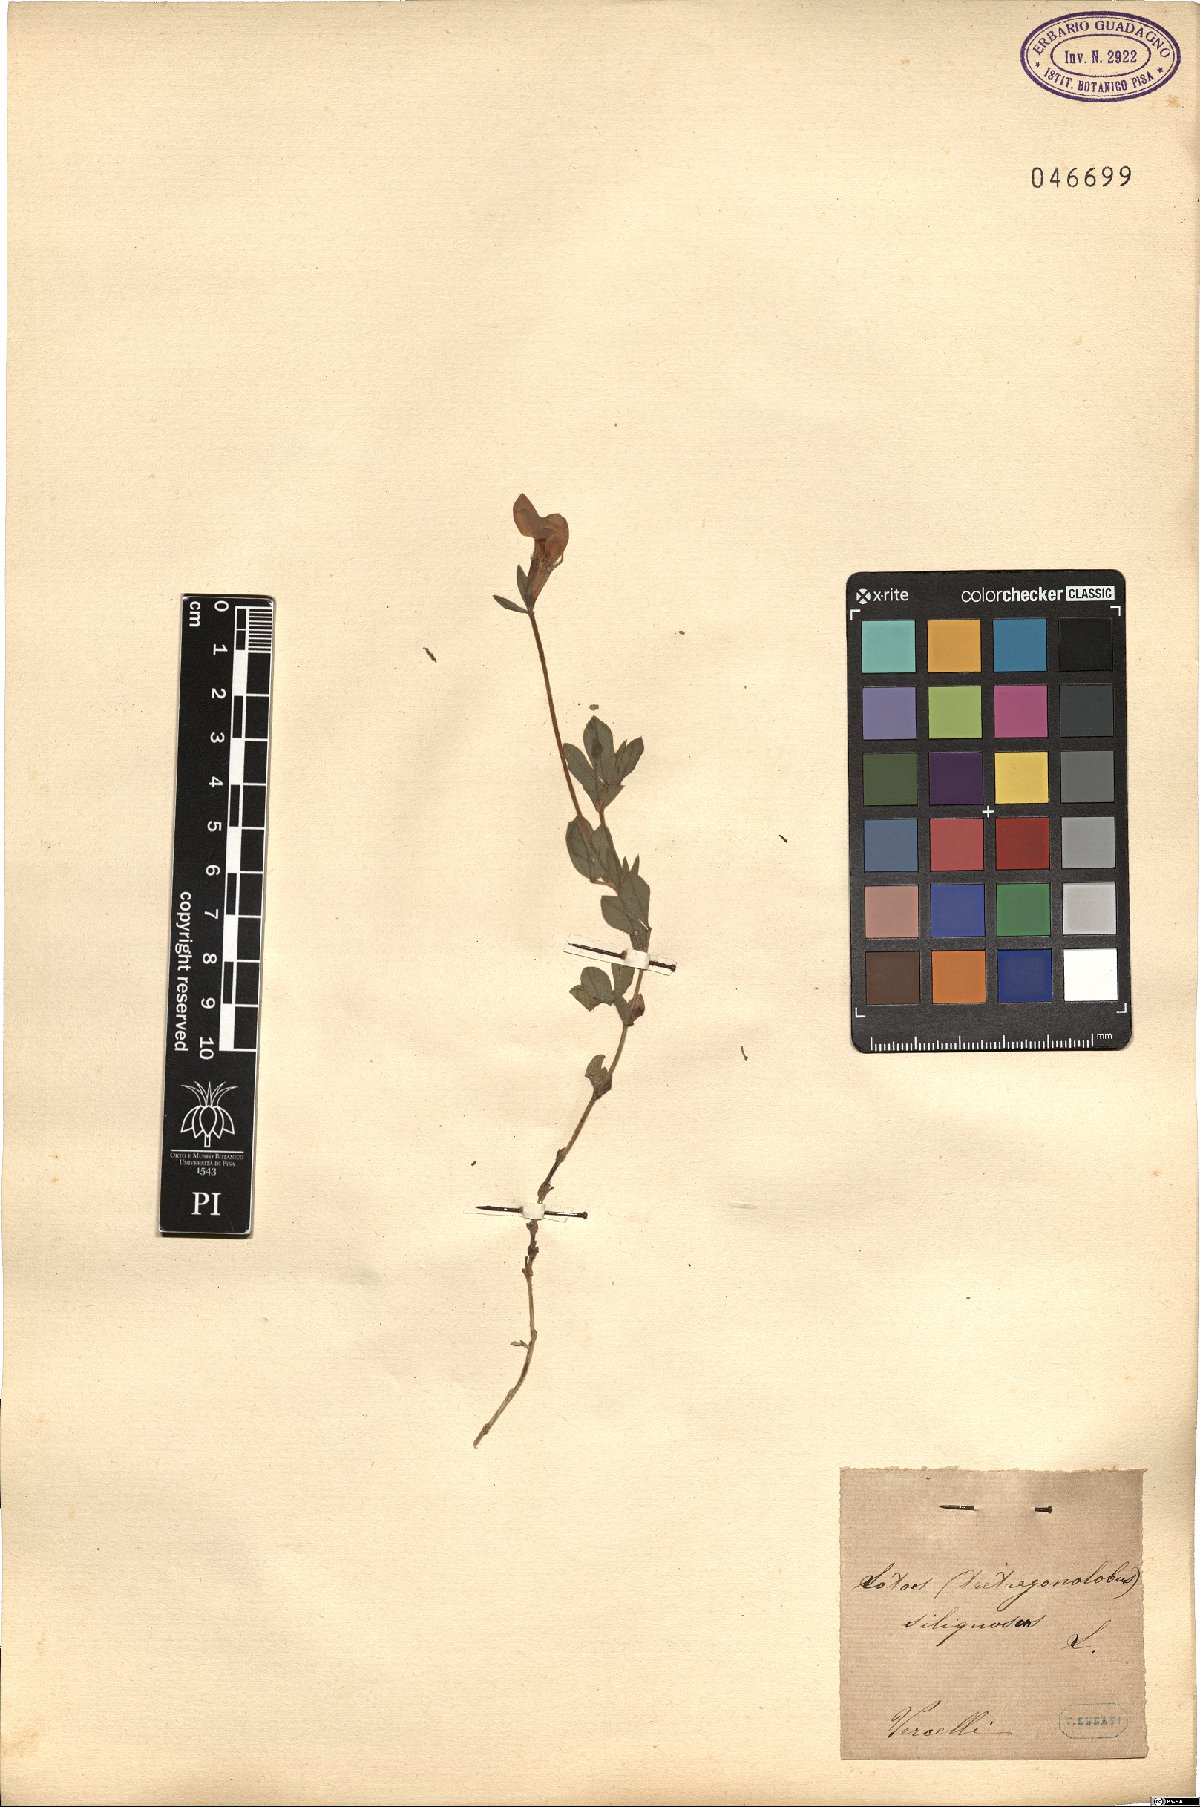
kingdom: Plantae
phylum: Tracheophyta
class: Magnoliopsida
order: Fabales
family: Fabaceae
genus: Lathyrus
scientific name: Lathyrus inconspicuus
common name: Inconspicuous pea
